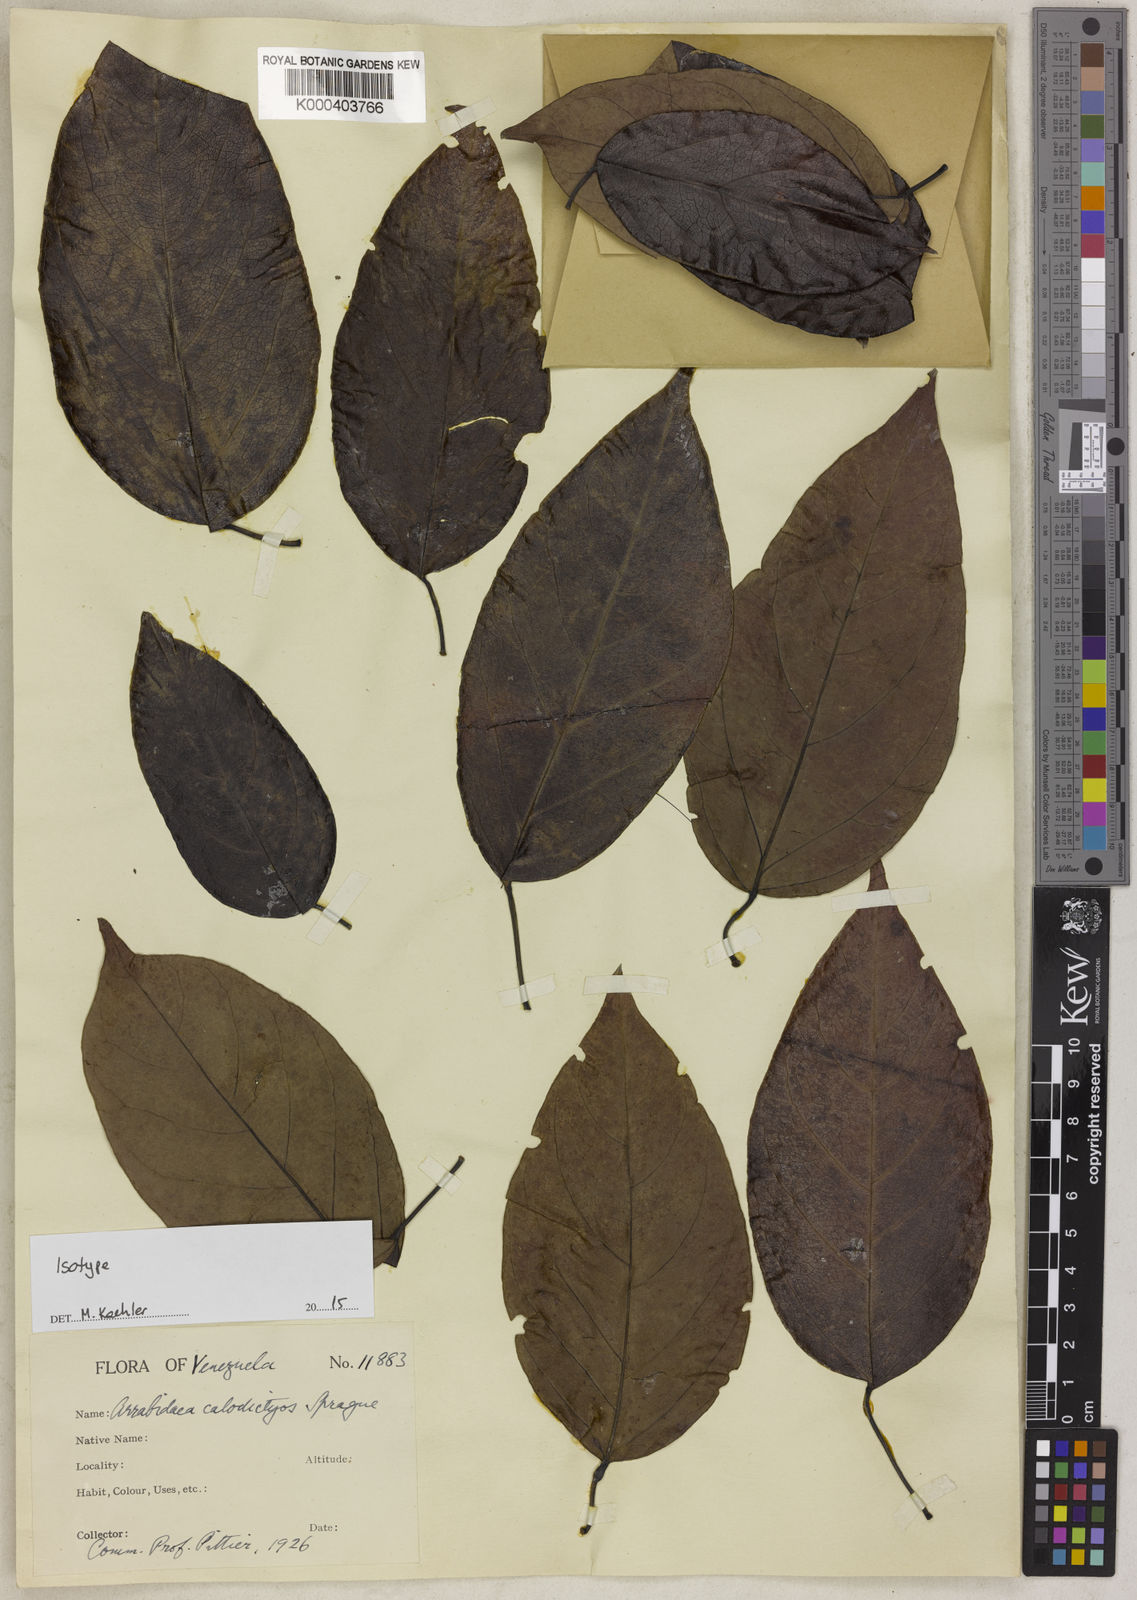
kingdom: Plantae
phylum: Tracheophyta
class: Magnoliopsida
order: Lamiales
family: Bignoniaceae
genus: Fridericia
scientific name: Fridericia candicans
